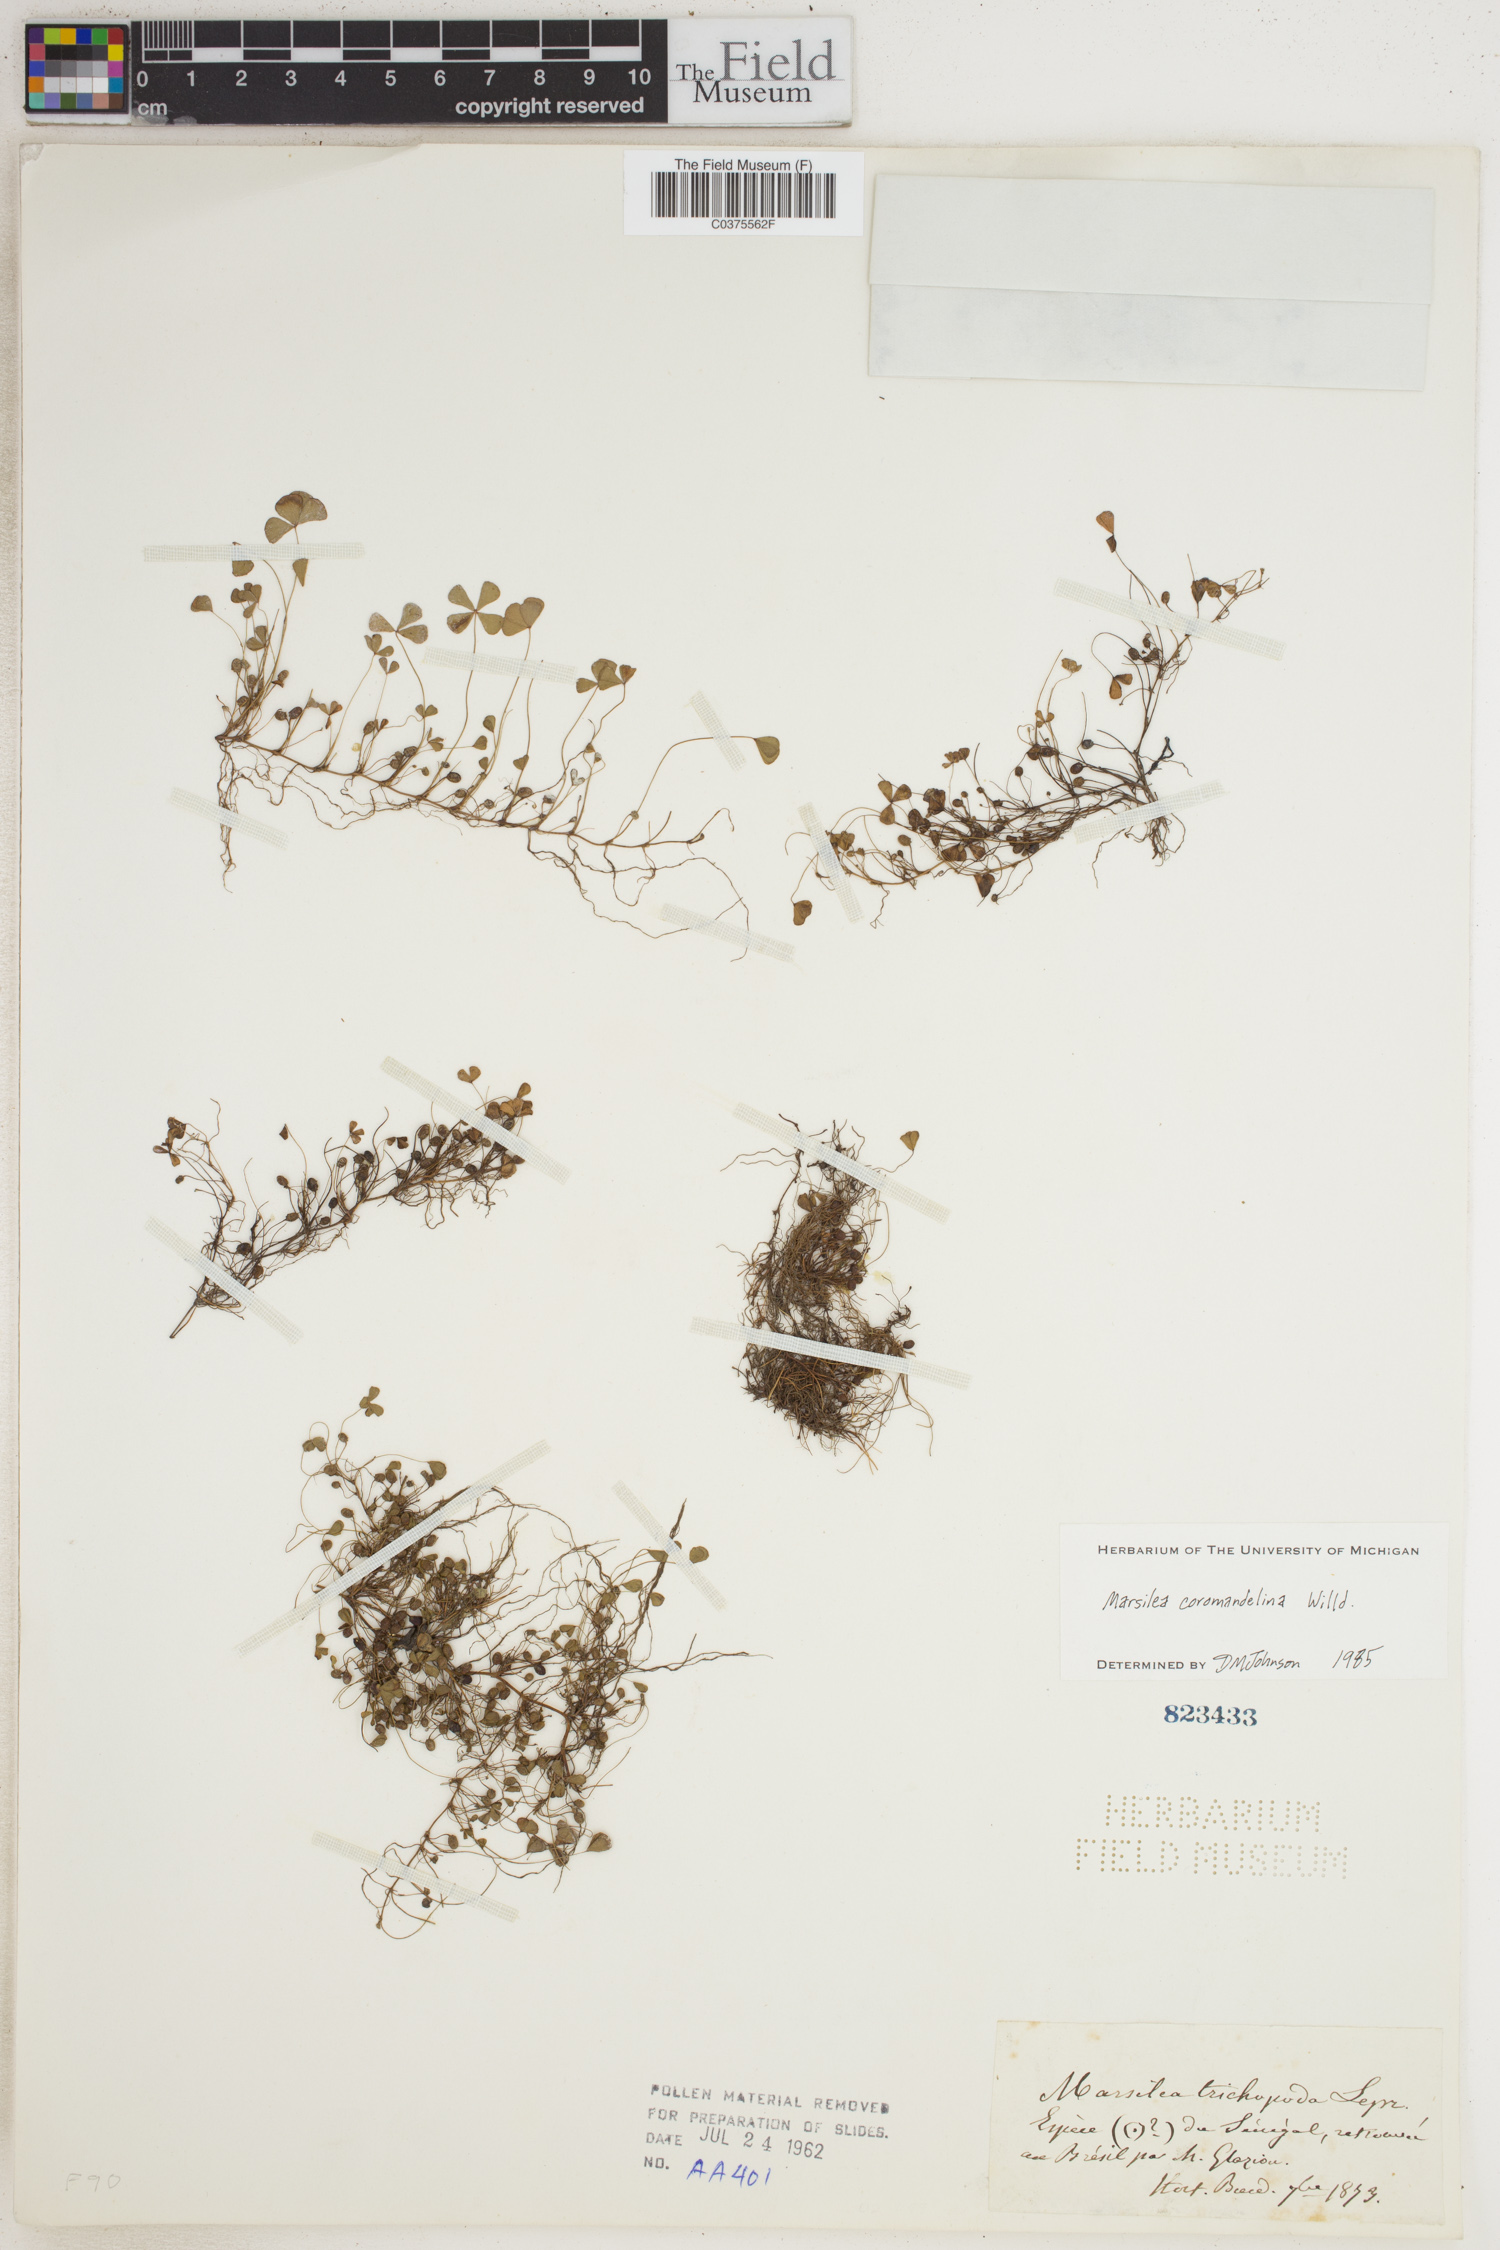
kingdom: Plantae
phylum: Tracheophyta
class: Polypodiopsida
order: Salviniales
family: Marsileaceae
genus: Marsilea
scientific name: Marsilea coromandelina
